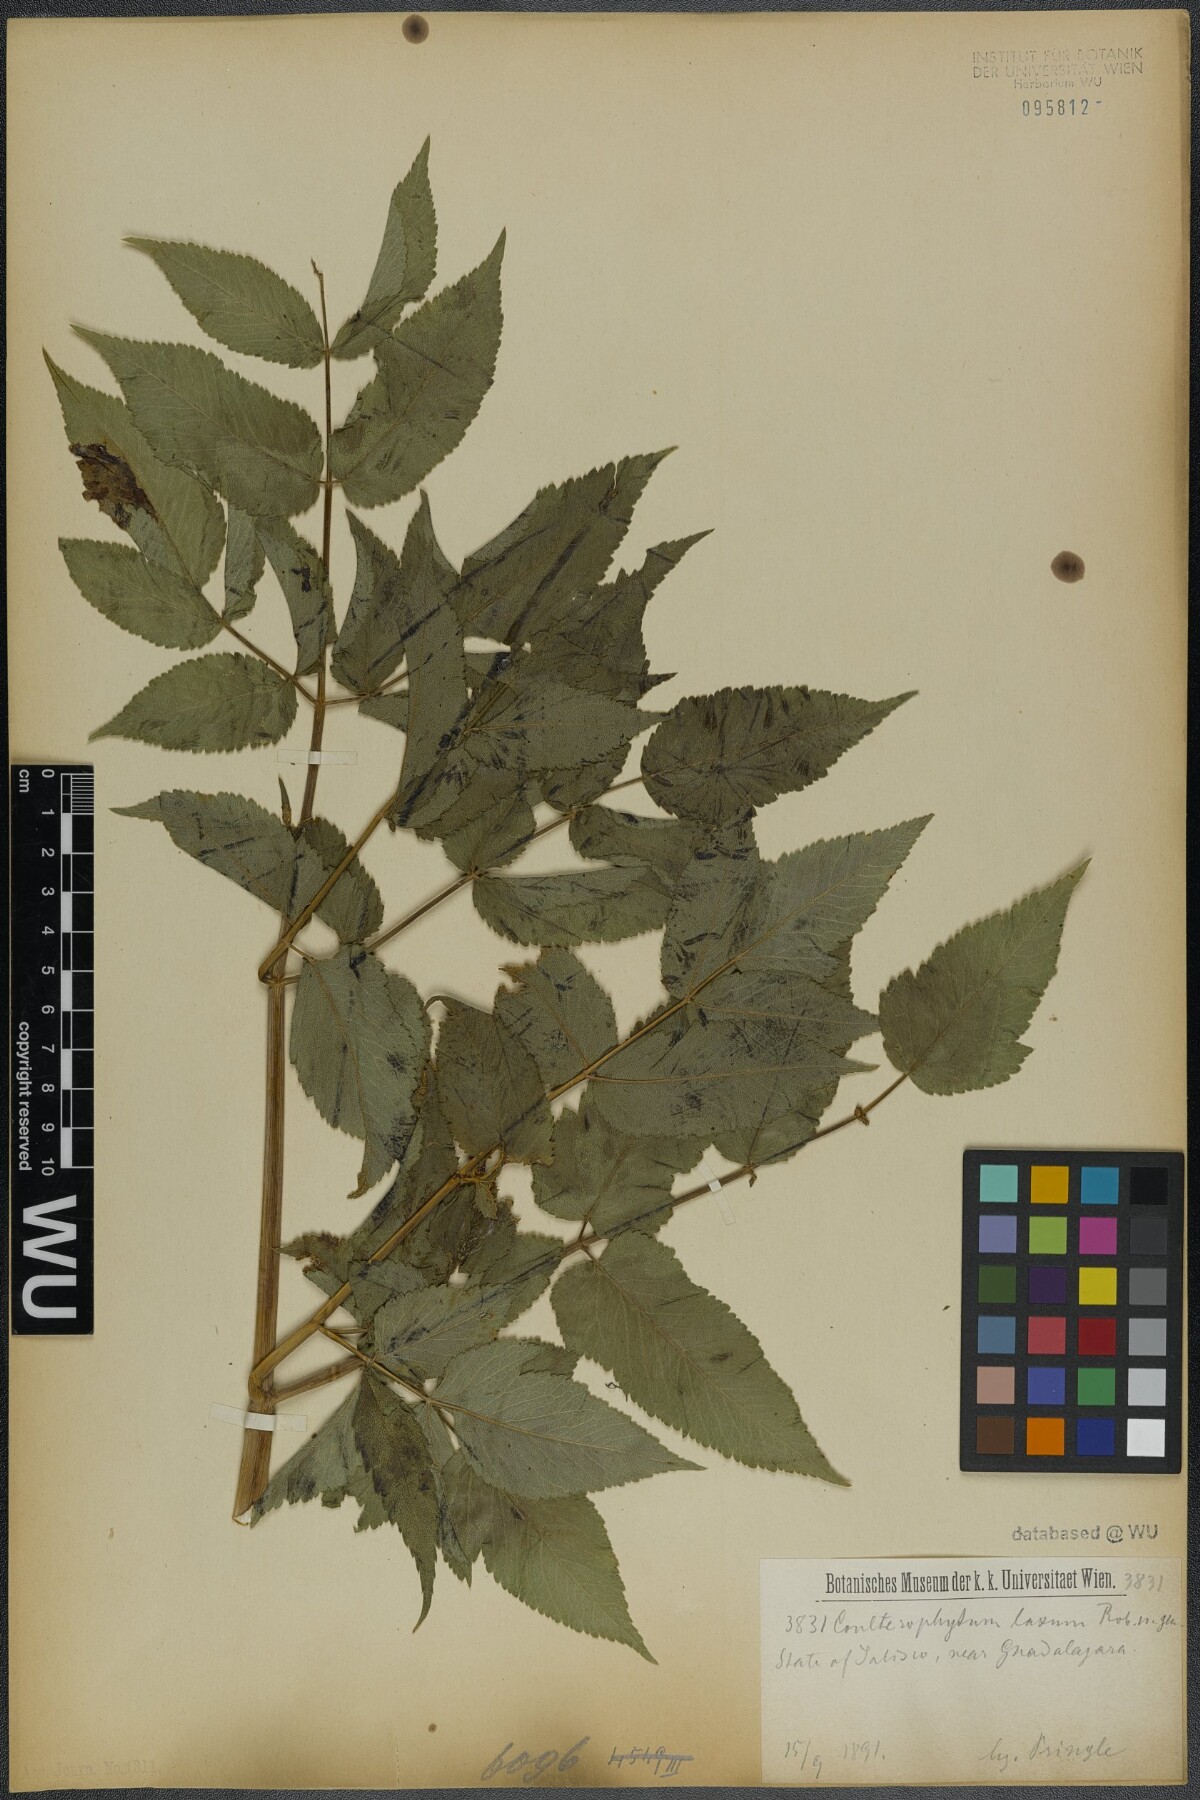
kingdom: Plantae
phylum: Tracheophyta
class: Magnoliopsida
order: Apiales
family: Apiaceae
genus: Coulterophytum
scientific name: Coulterophytum laxum
